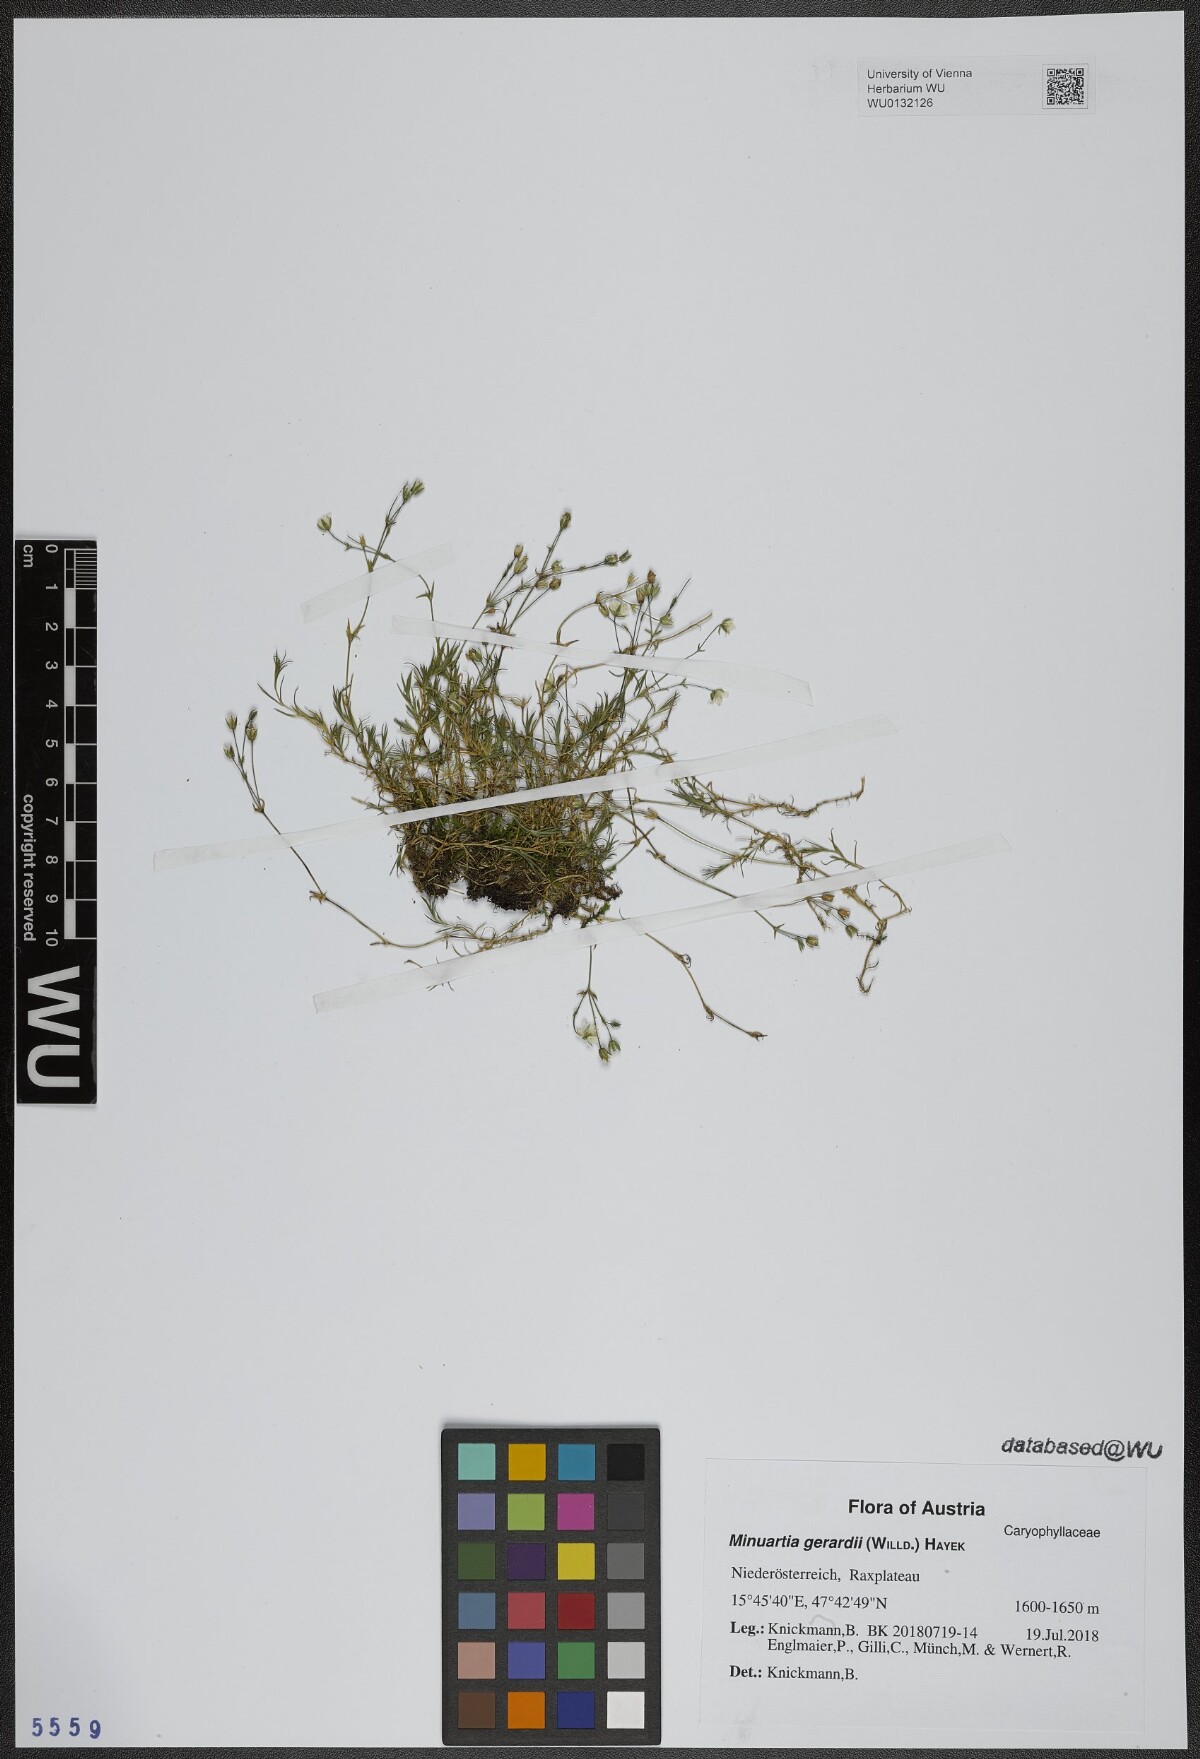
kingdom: Plantae
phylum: Tracheophyta
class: Magnoliopsida
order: Caryophyllales
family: Caryophyllaceae
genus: Sabulina
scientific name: Sabulina verna
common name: Spring sandwort
